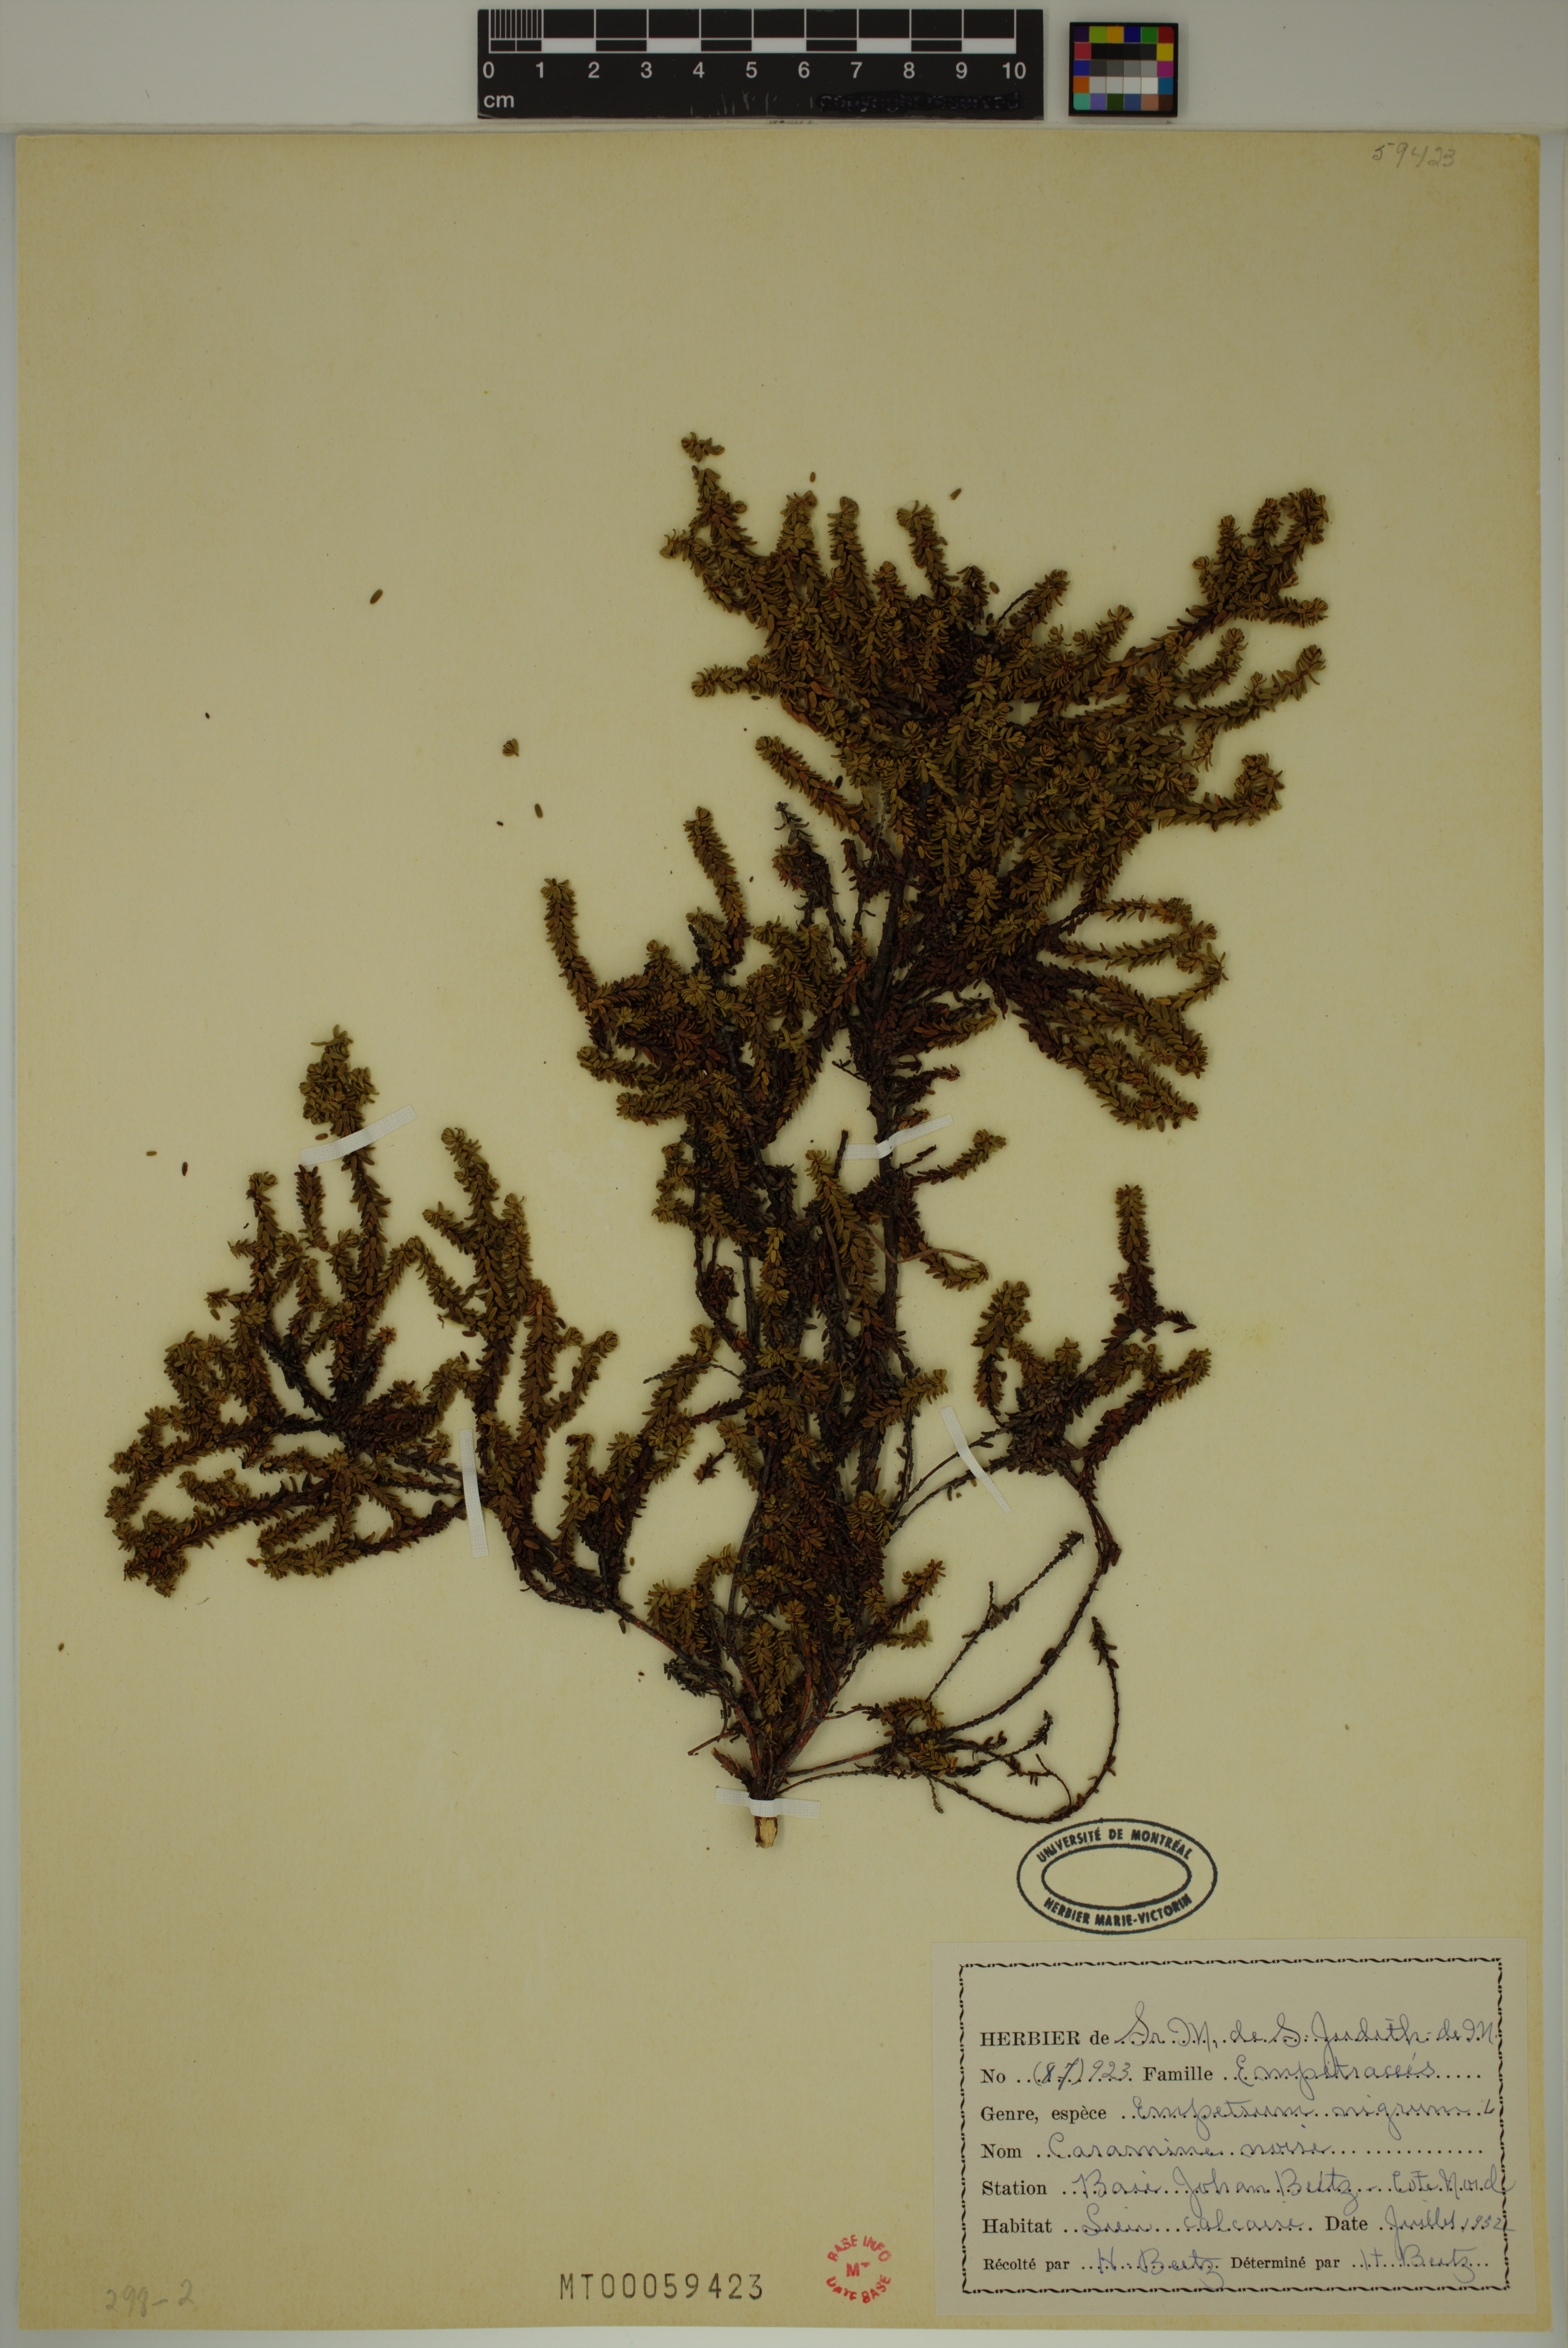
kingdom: Plantae
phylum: Tracheophyta
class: Magnoliopsida
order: Ericales
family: Ericaceae
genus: Empetrum
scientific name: Empetrum nigrum
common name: Black crowberry
